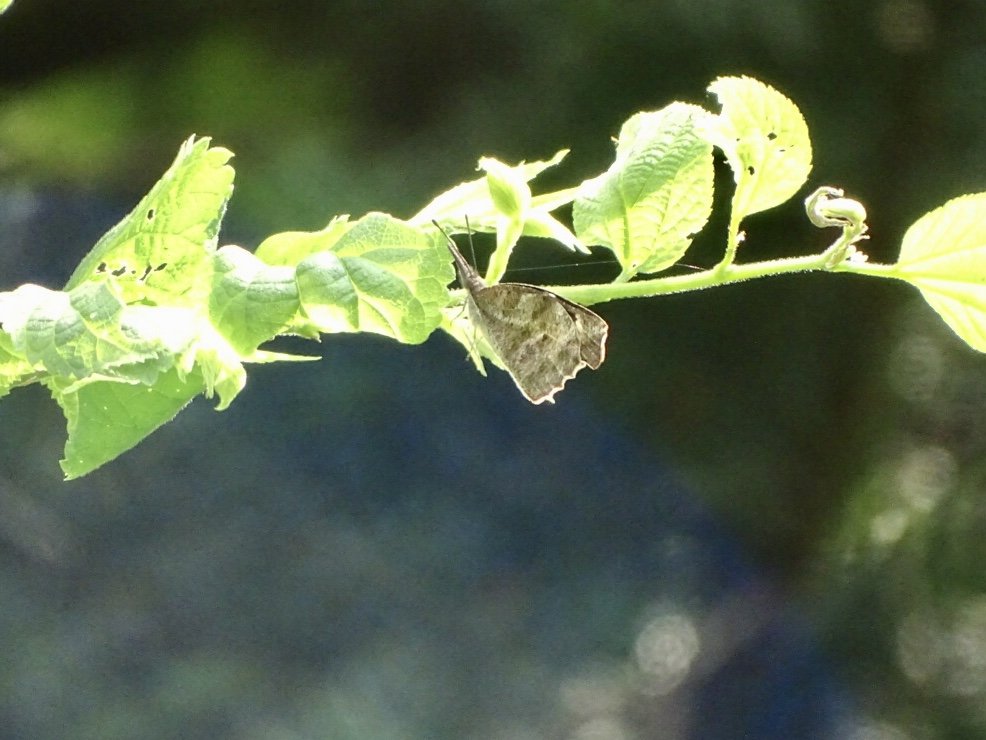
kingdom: Animalia
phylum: Arthropoda
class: Insecta
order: Lepidoptera
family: Nymphalidae
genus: Libytheana
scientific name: Libytheana carinenta
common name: American Snout
